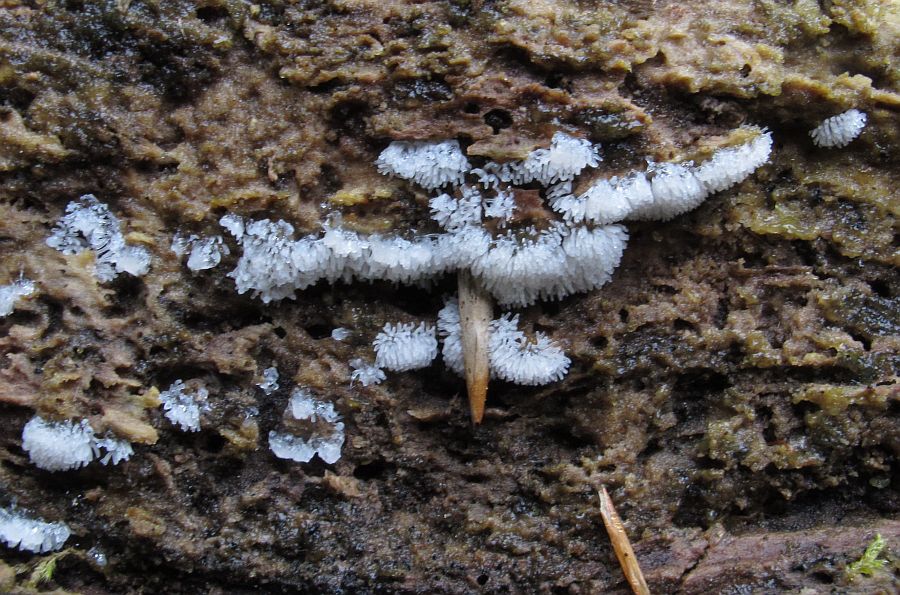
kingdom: Protozoa
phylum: Mycetozoa
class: Protosteliomycetes
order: Ceratiomyxales
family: Ceratiomyxaceae
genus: Ceratiomyxa
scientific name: Ceratiomyxa fruticulosa
